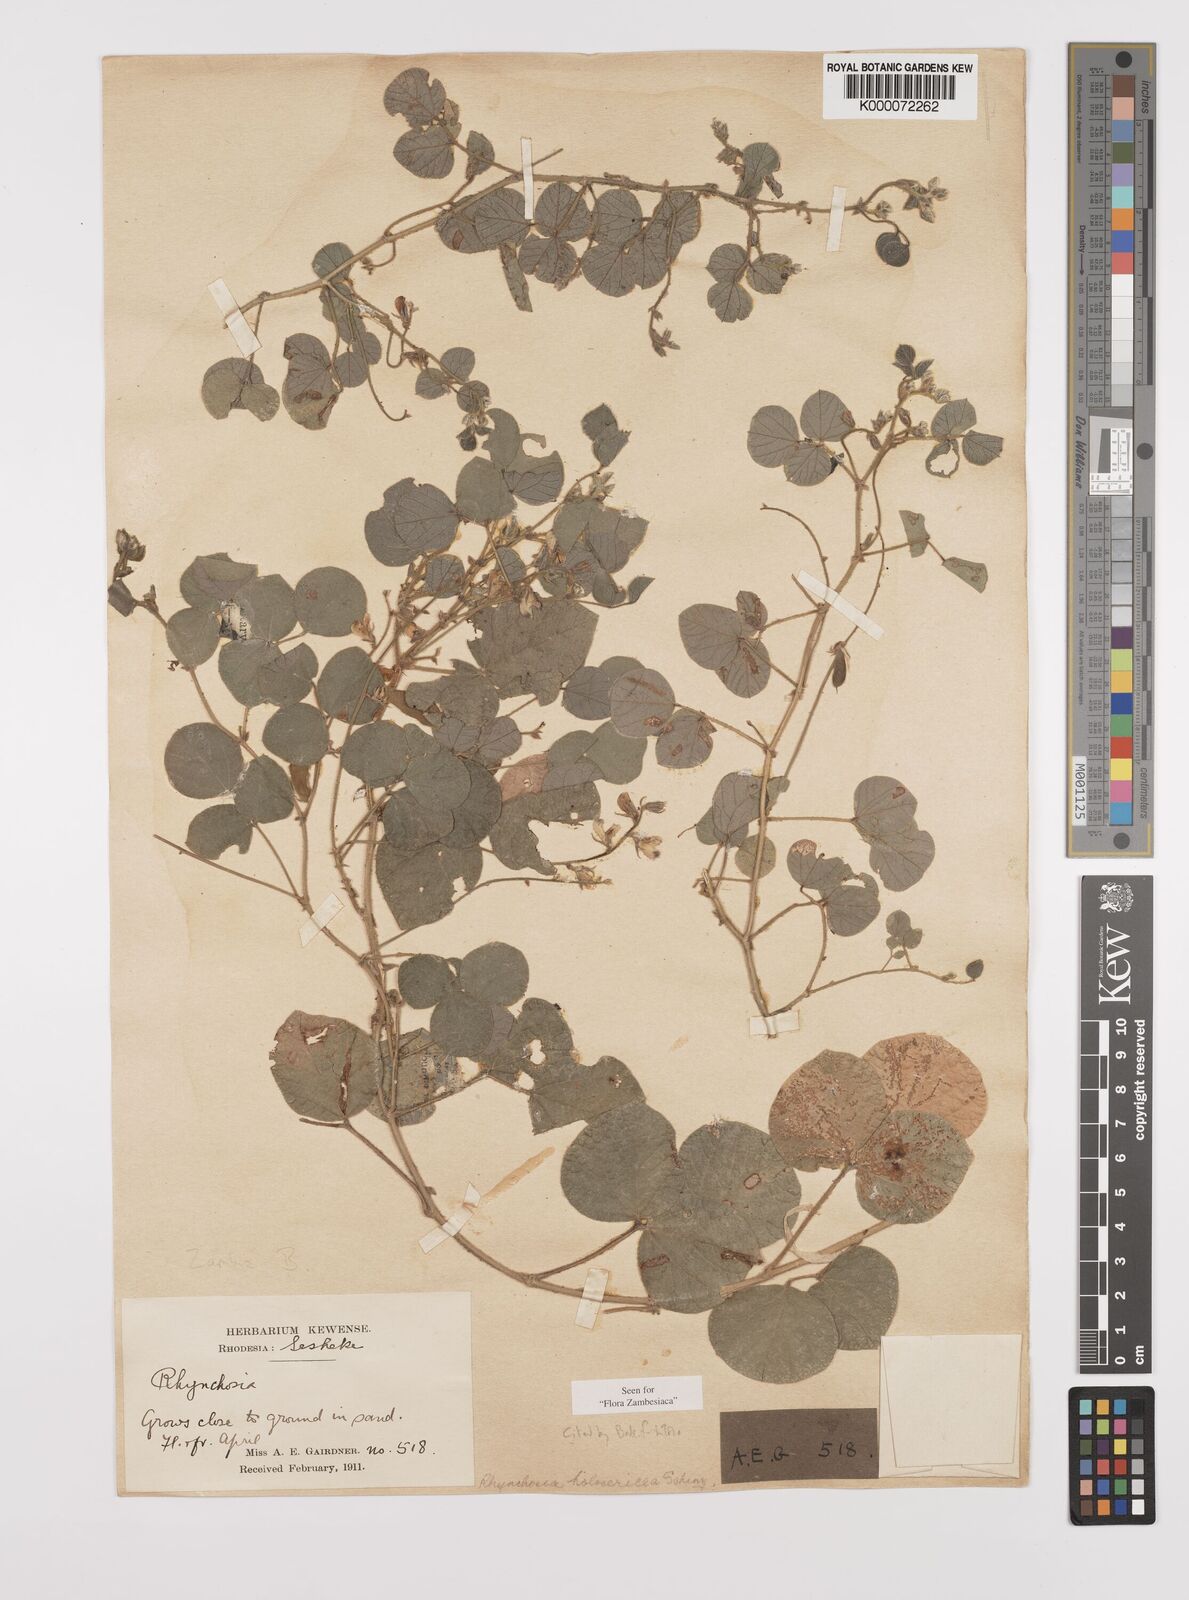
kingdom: Plantae
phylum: Tracheophyta
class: Magnoliopsida
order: Fabales
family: Fabaceae
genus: Rhynchosia
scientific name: Rhynchosia holosericea
